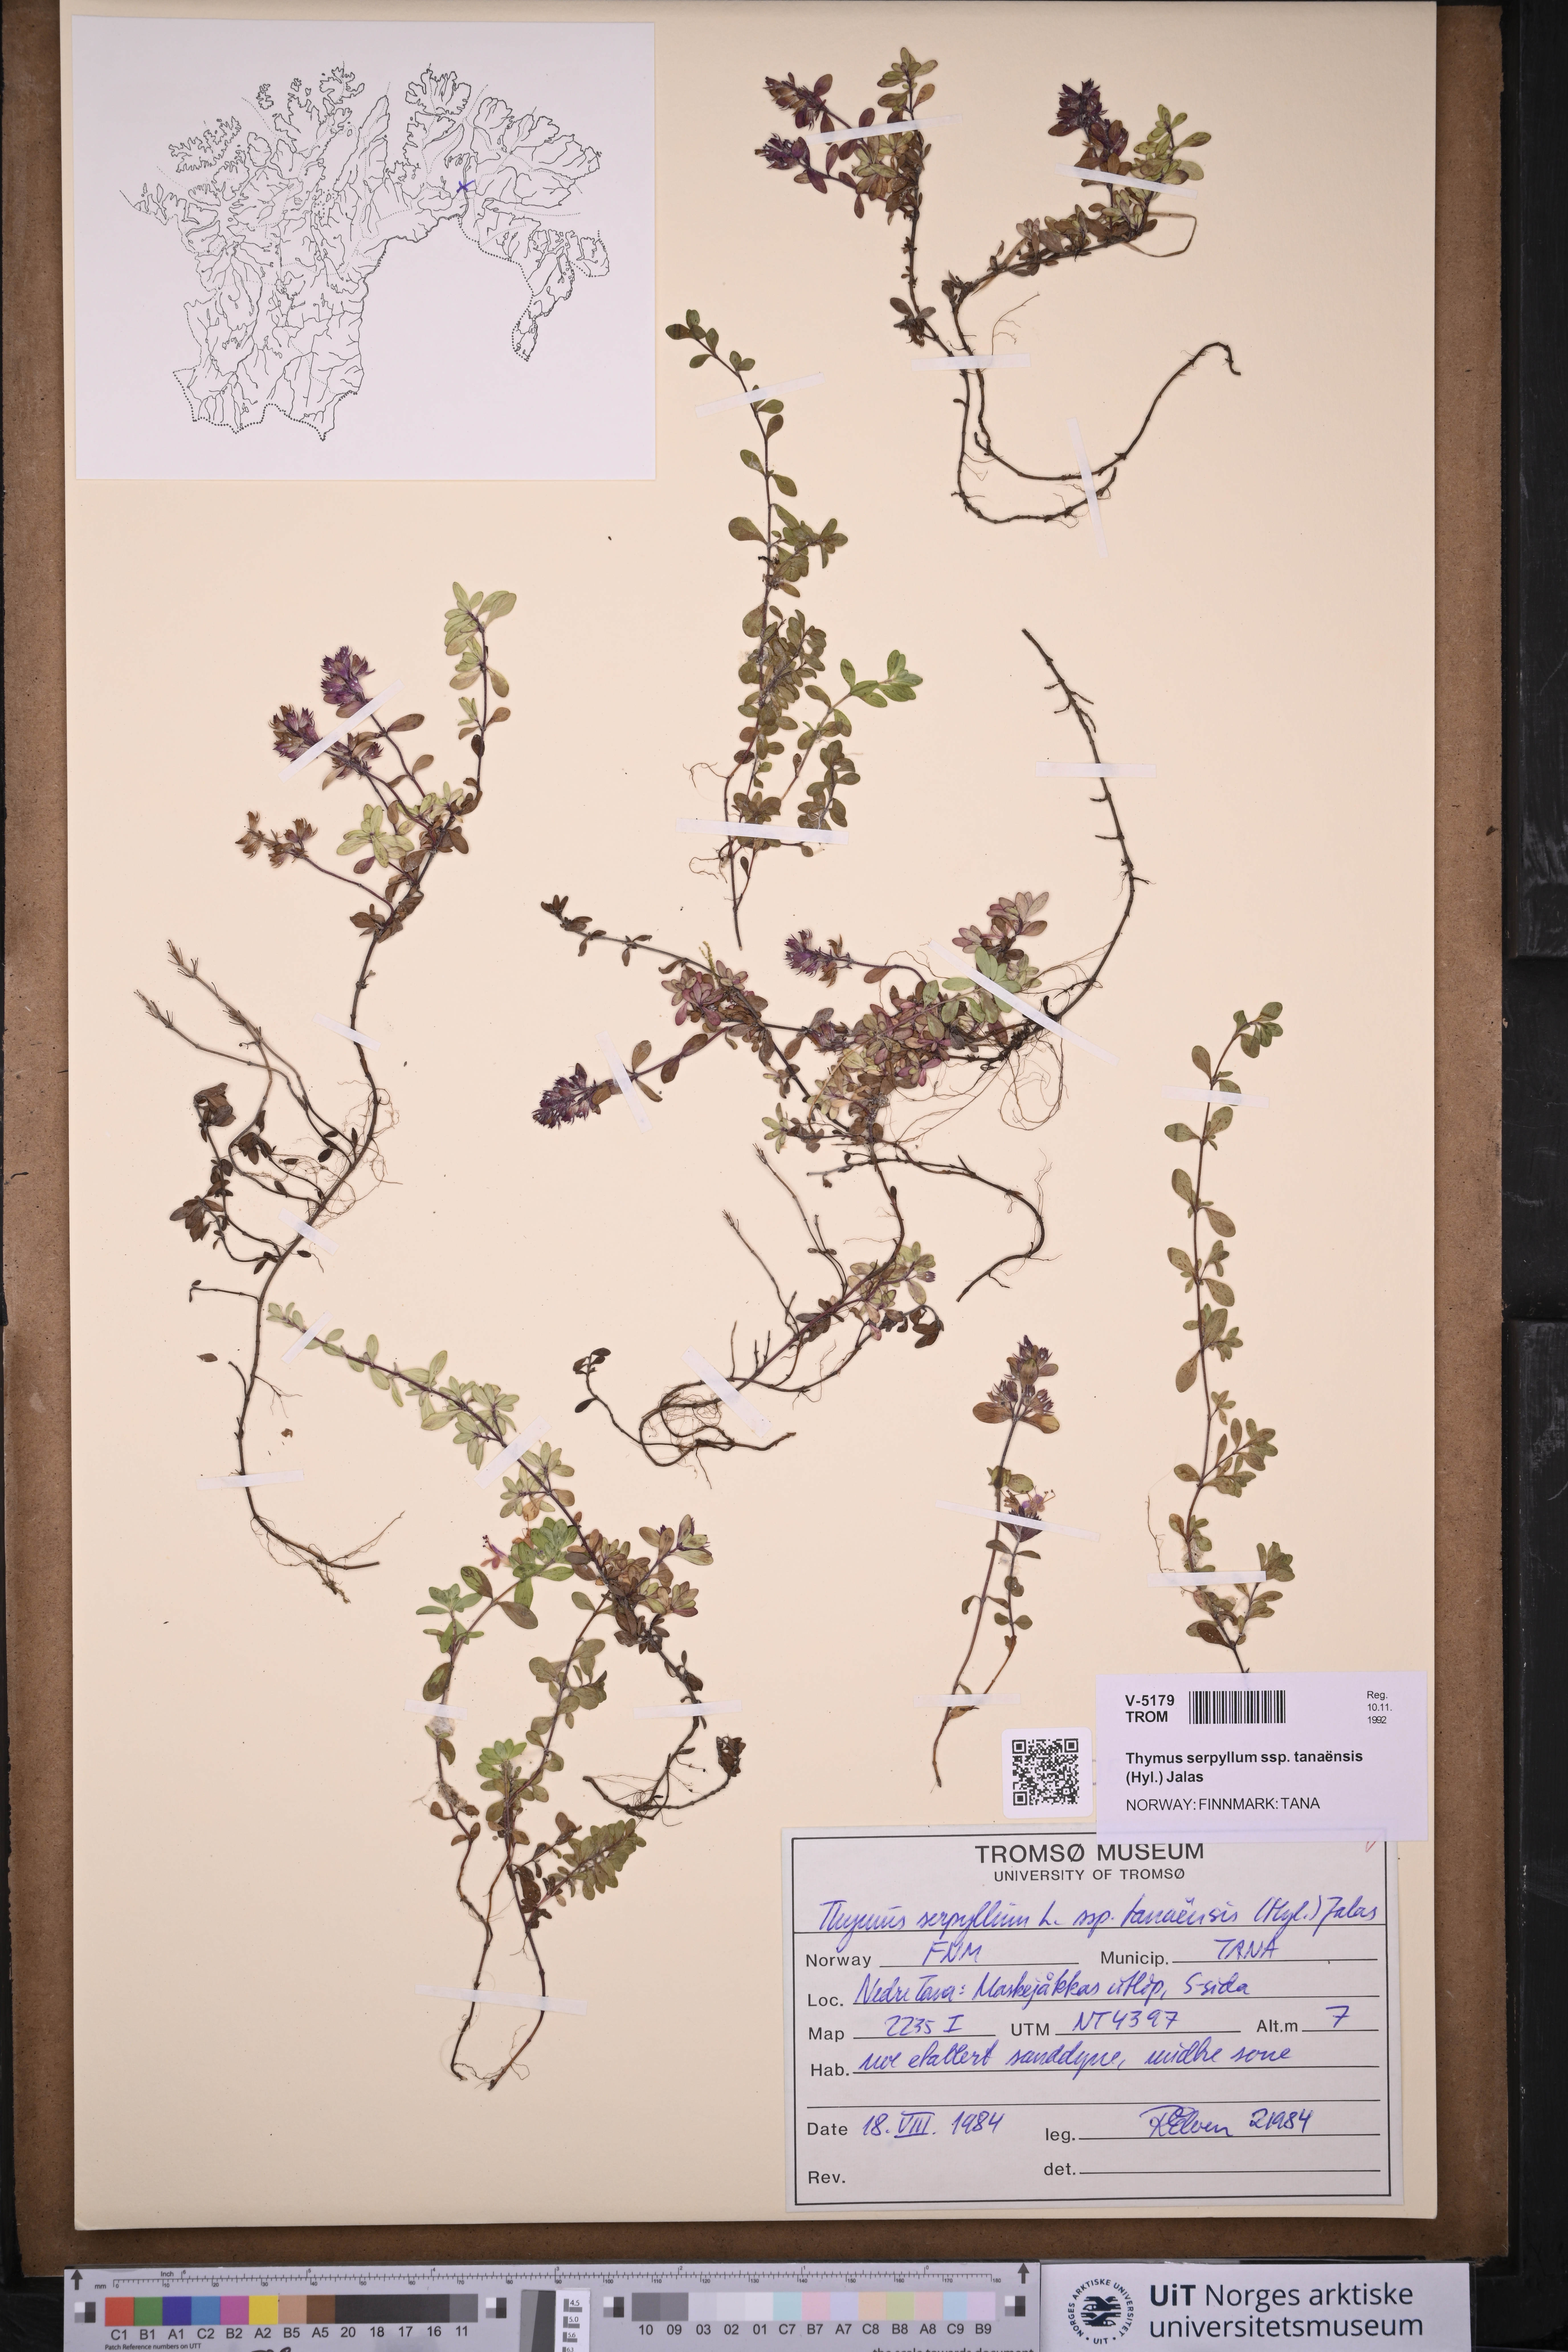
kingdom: Plantae
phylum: Tracheophyta
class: Magnoliopsida
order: Lamiales
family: Lamiaceae
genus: Thymus
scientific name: Thymus serpyllum
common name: Breckland thyme
